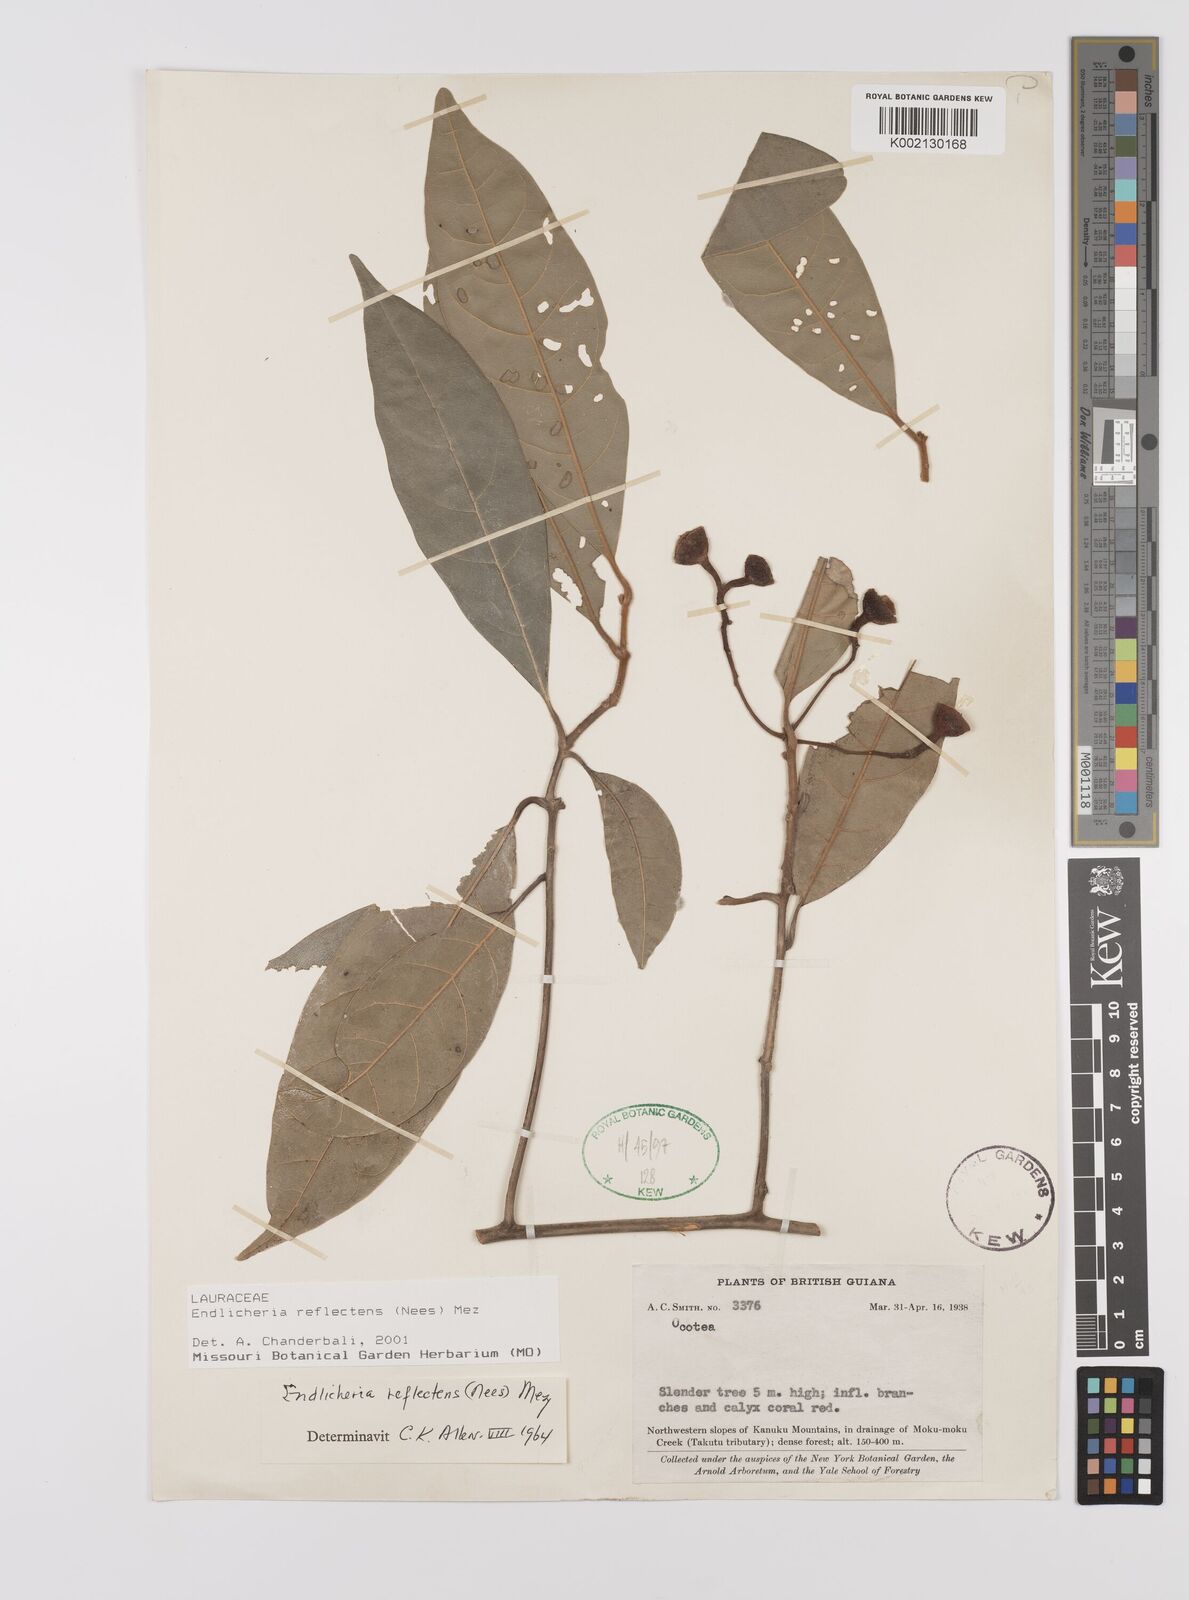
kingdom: Plantae
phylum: Tracheophyta
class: Magnoliopsida
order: Laurales
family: Lauraceae
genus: Endlicheria
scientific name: Endlicheria reflectens
